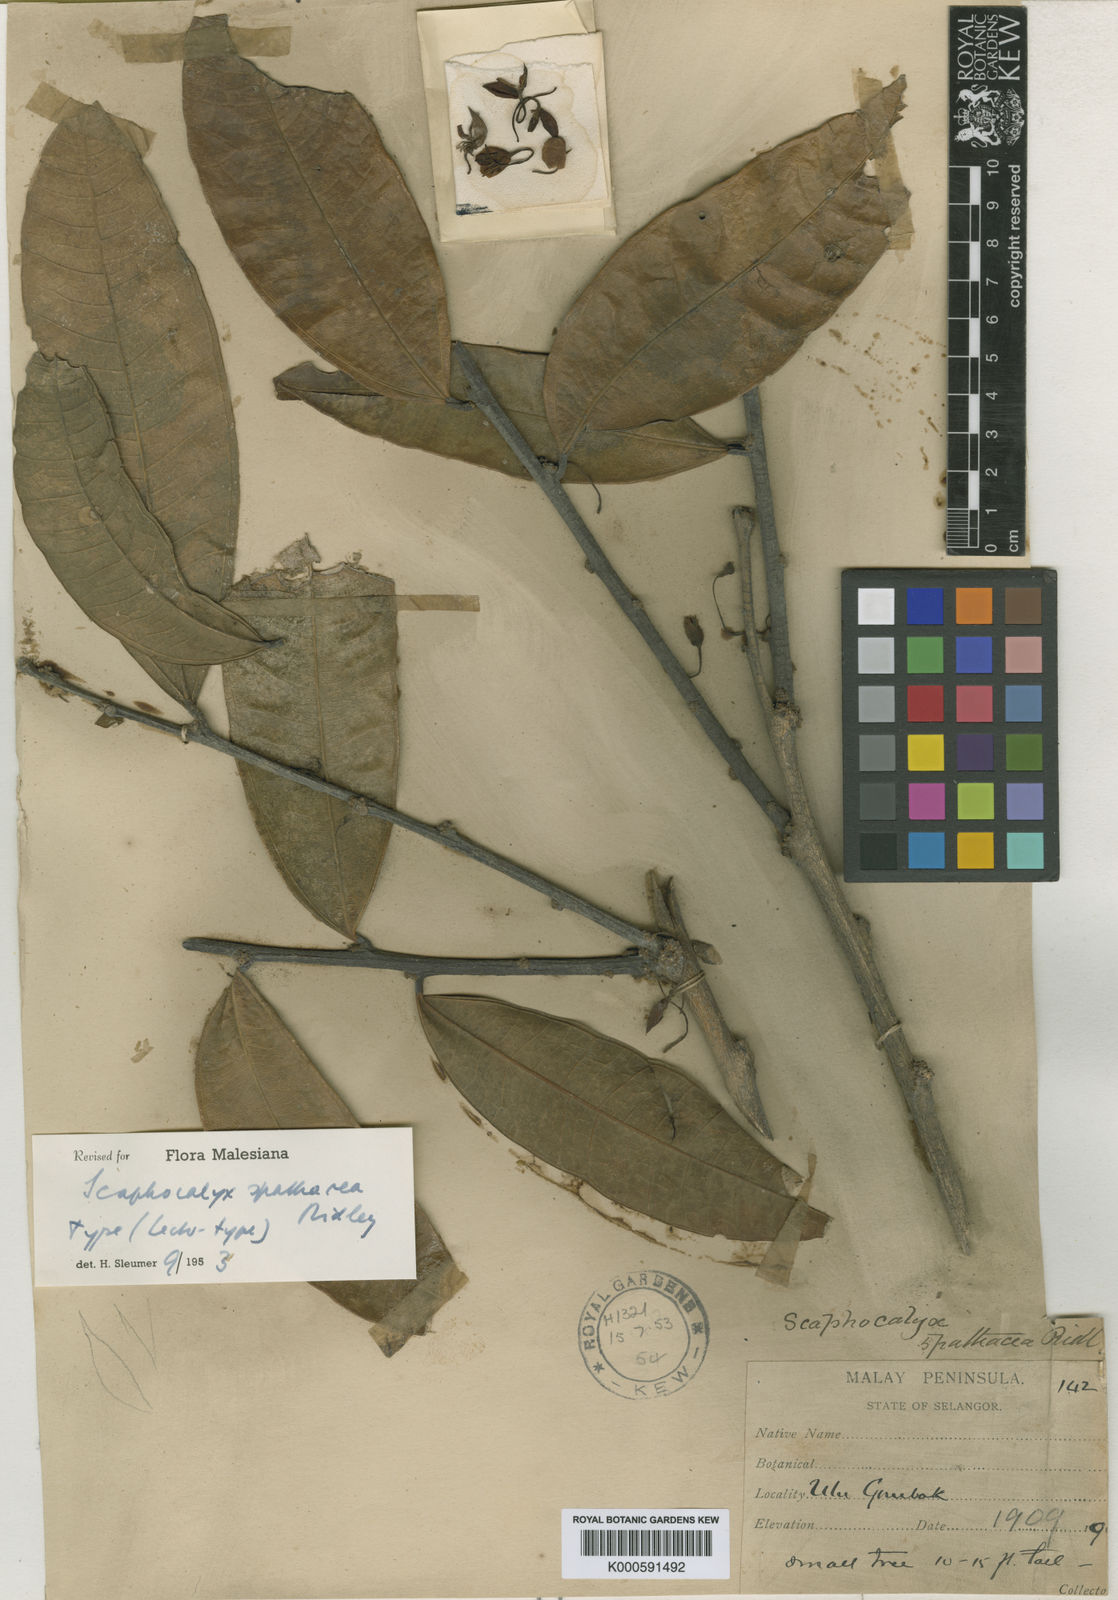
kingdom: Plantae
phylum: Tracheophyta
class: Magnoliopsida
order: Malpighiales
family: Achariaceae
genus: Scaphocalyx
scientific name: Scaphocalyx spathacea
